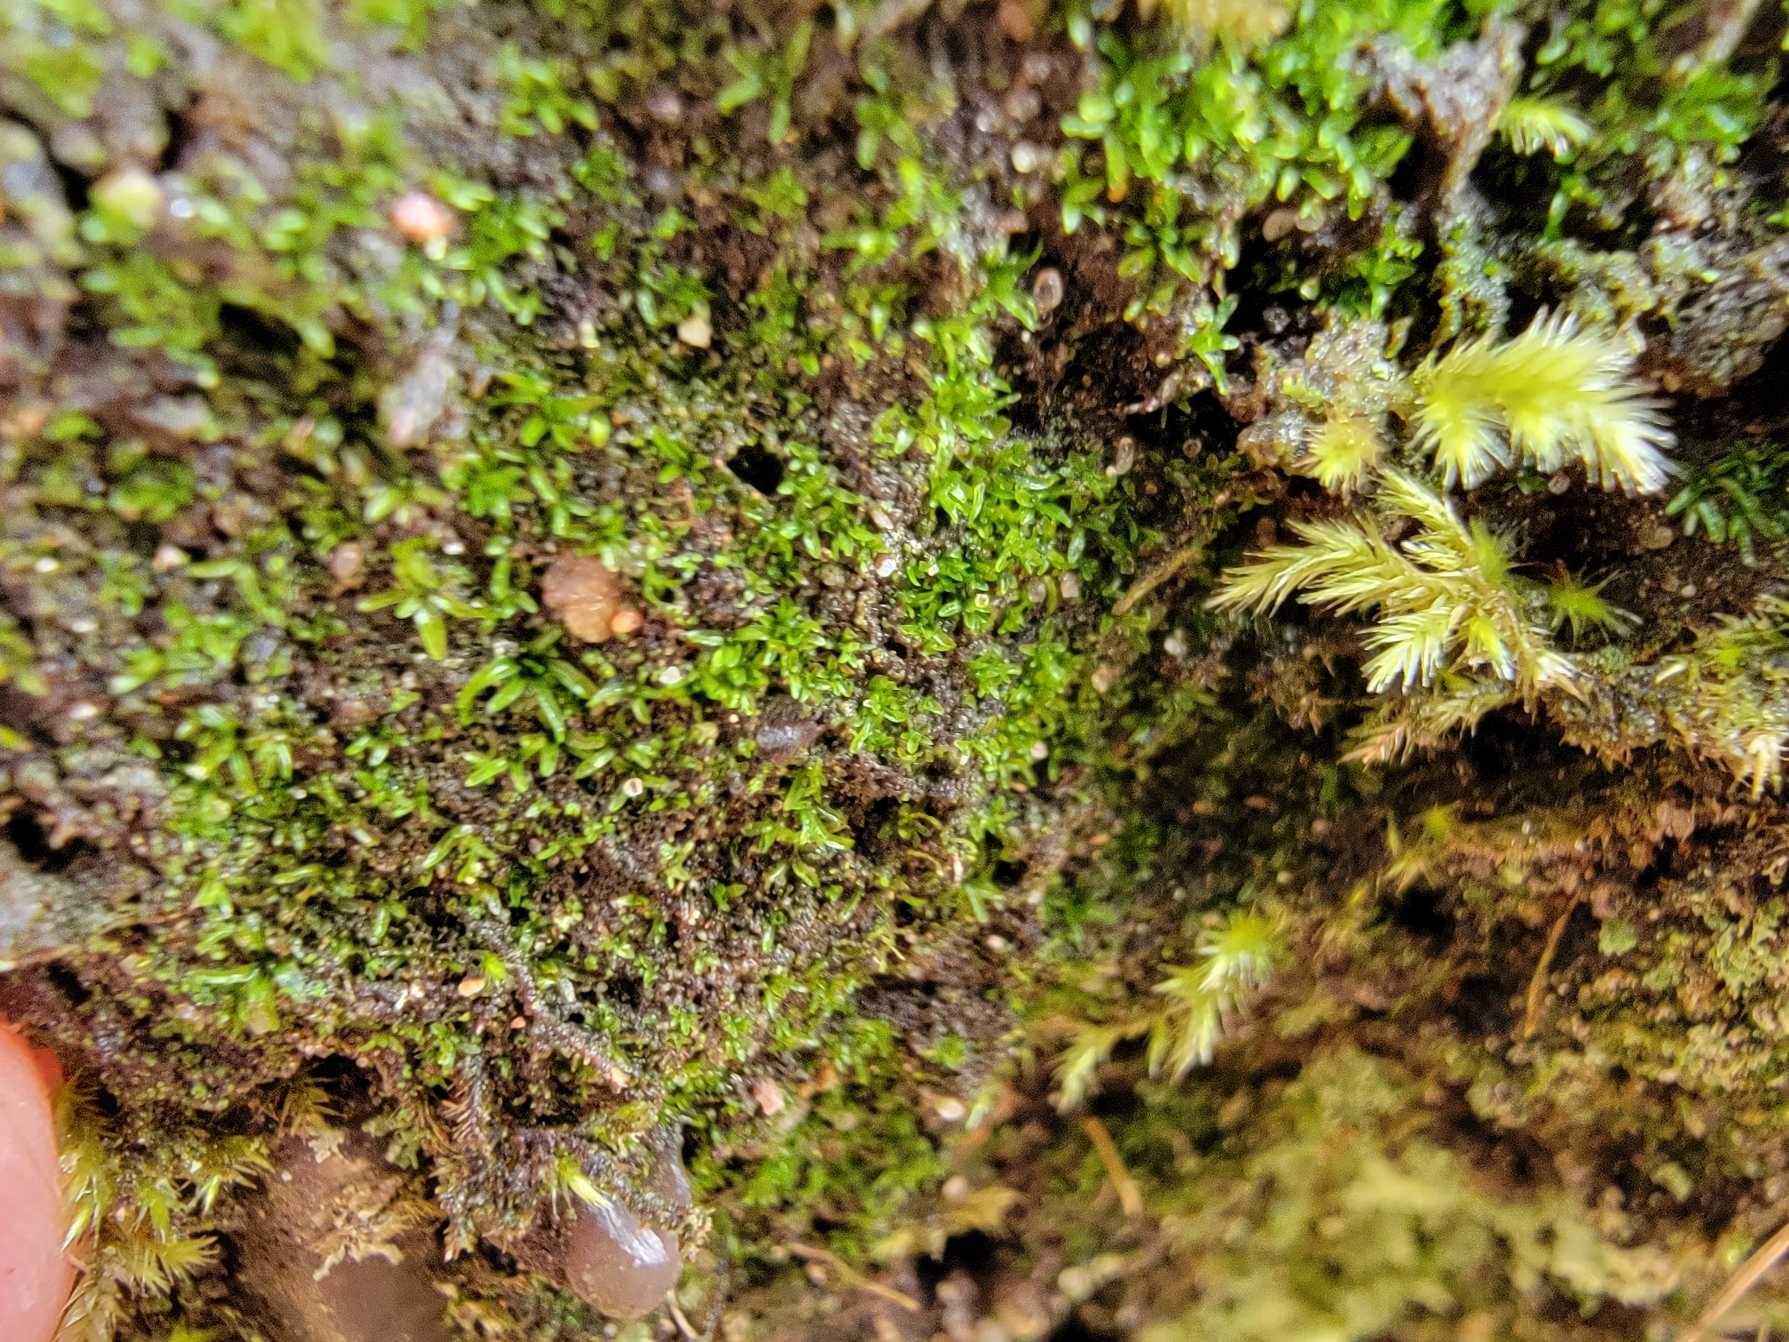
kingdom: Plantae
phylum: Bryophyta
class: Bryopsida
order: Diphysciales
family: Diphysciaceae
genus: Diphyscium
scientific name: Diphyscium foliosum
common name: Stilkløs sækkapsel
